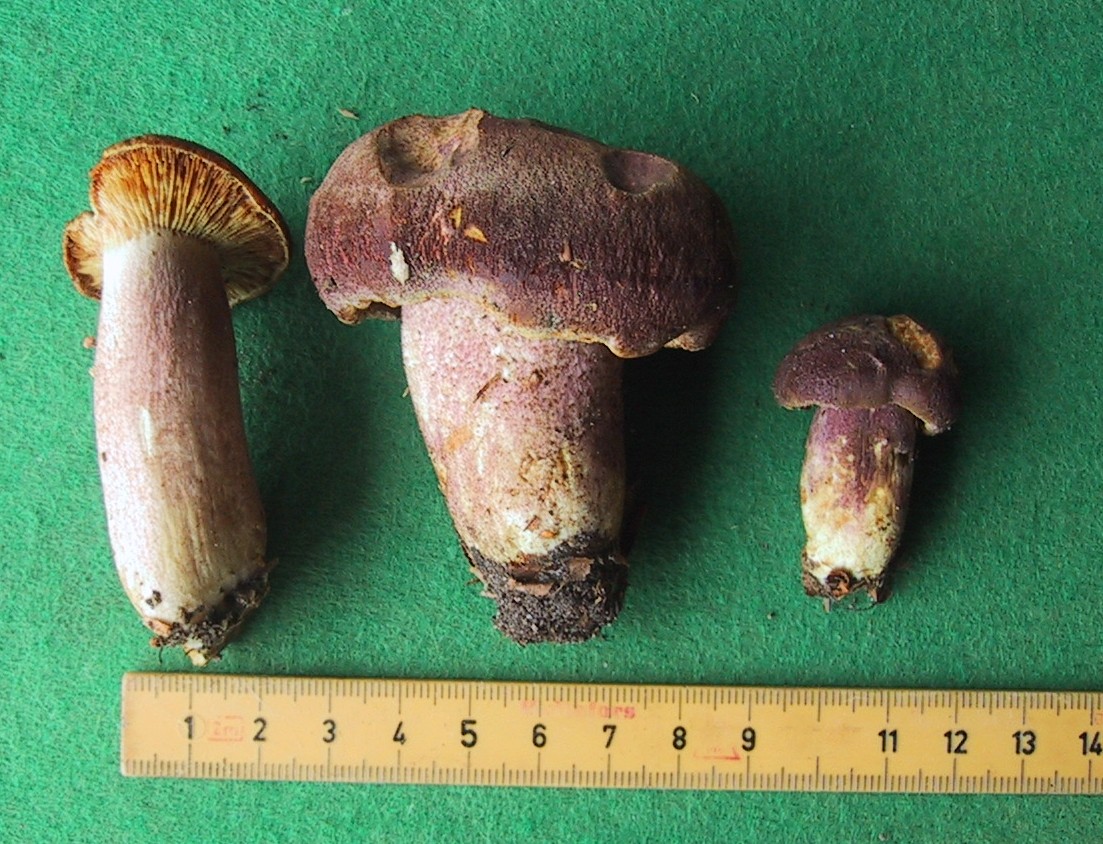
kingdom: Fungi
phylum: Basidiomycota
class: Agaricomycetes
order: Agaricales
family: Tricholomataceae
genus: Tricholomopsis
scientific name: Tricholomopsis rutilans
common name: purpur-væbnerhat
